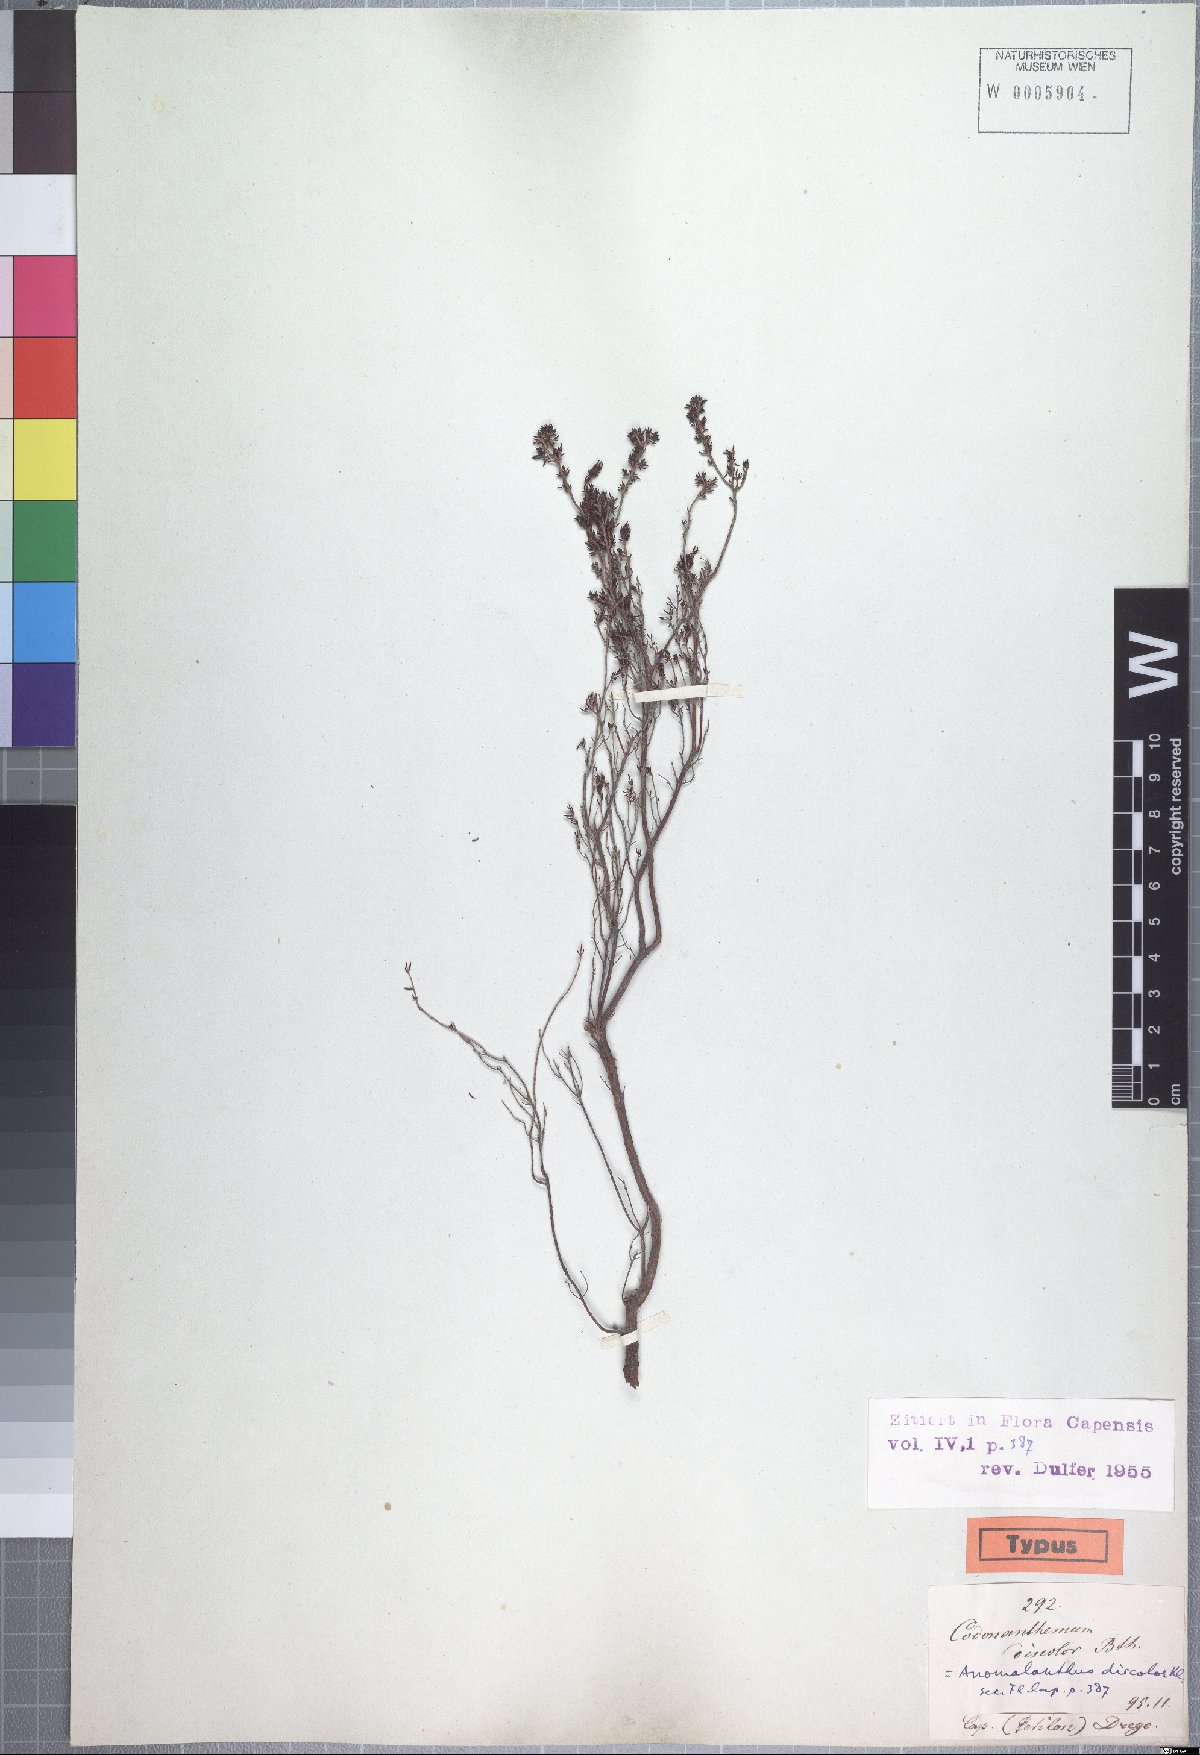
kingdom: Plantae
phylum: Tracheophyta
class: Magnoliopsida
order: Ericales
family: Ericaceae
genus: Erica
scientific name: Erica anguliger
